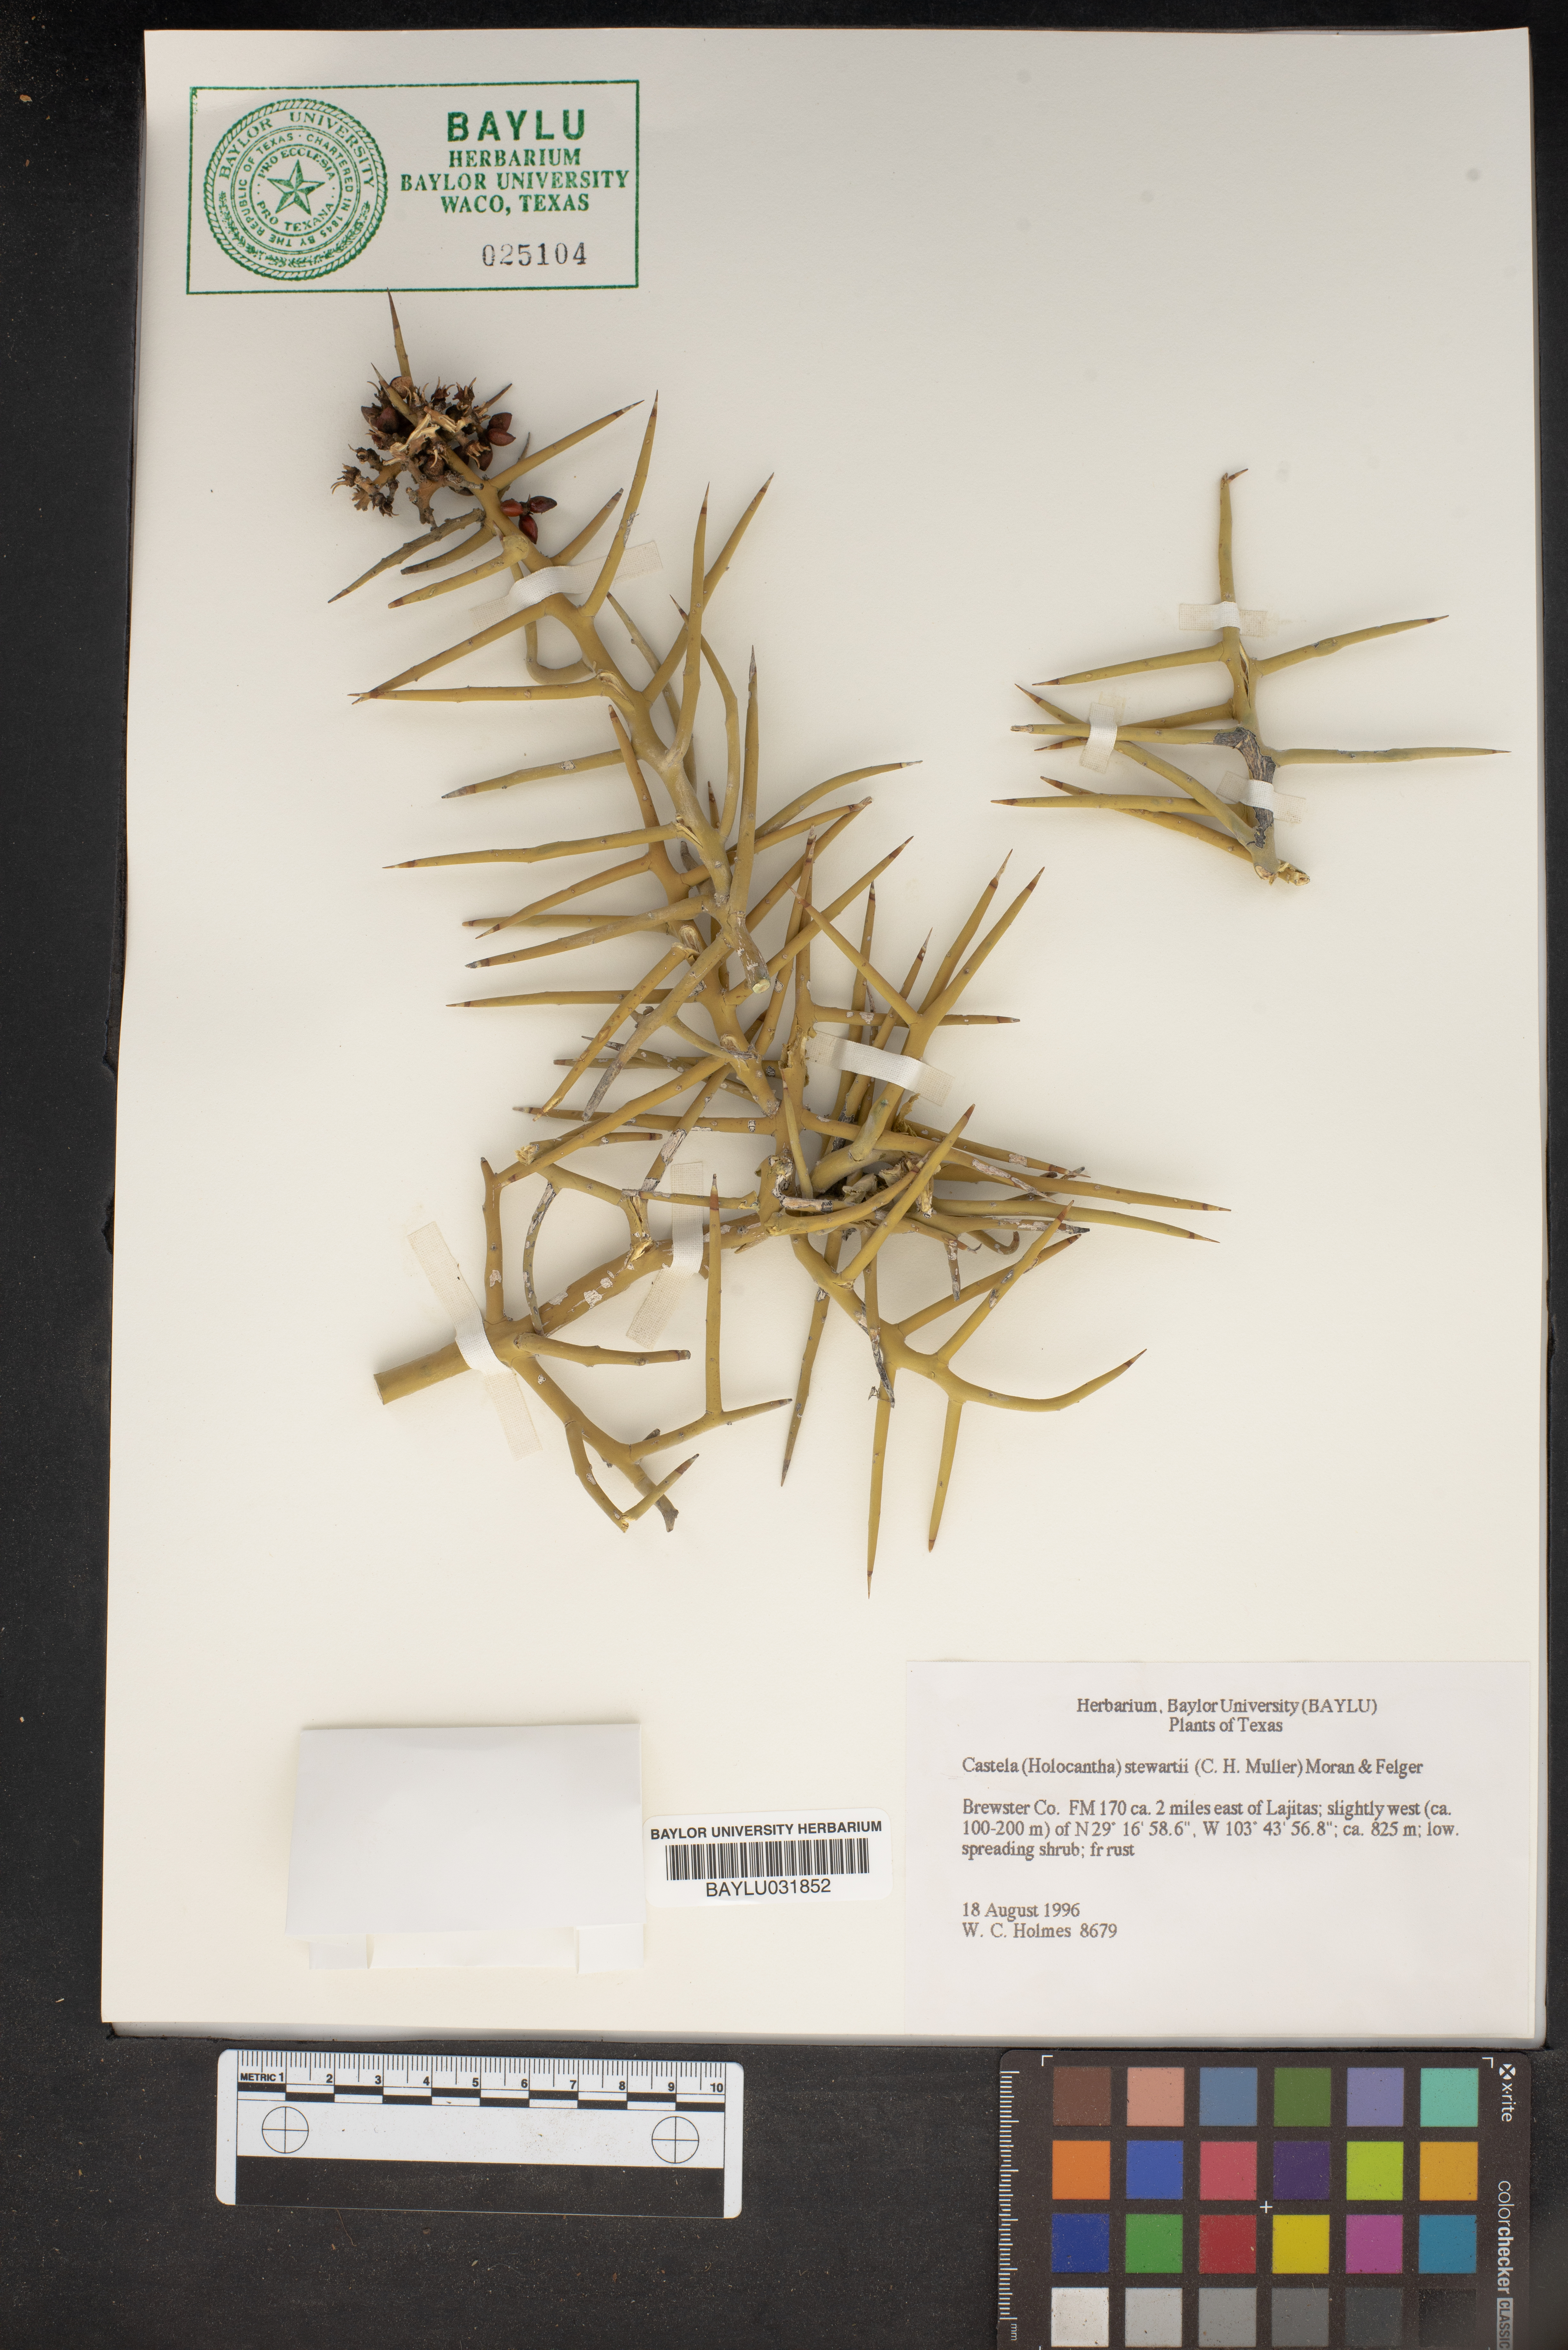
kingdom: Plantae
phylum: Tracheophyta
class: Magnoliopsida
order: Sapindales
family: Simaroubaceae
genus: Holacantha
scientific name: Holacantha stewartii
